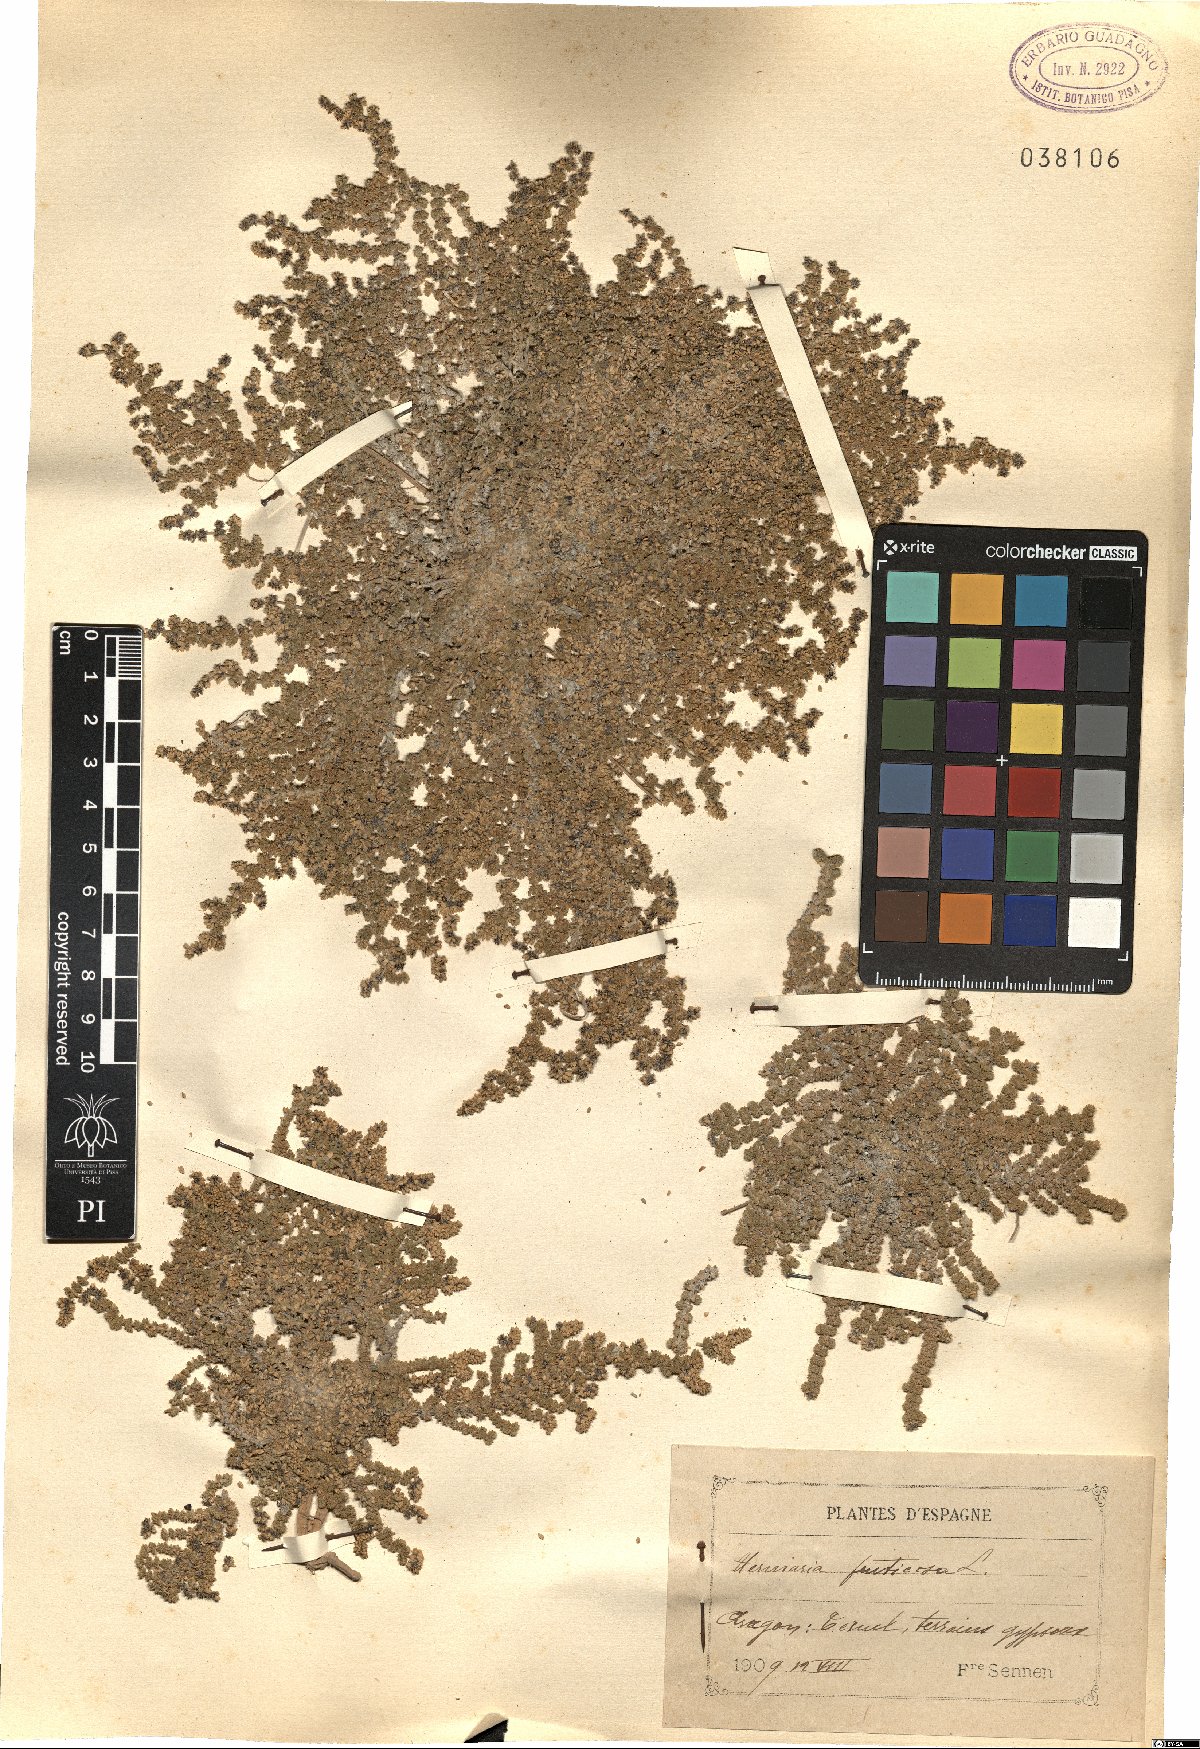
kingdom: Plantae
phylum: Tracheophyta
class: Magnoliopsida
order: Caryophyllales
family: Caryophyllaceae
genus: Herniaria
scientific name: Herniaria fruticosa
